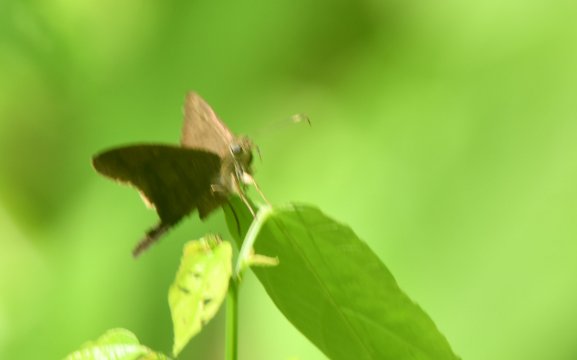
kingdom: Animalia
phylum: Arthropoda
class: Insecta
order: Lepidoptera
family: Hesperiidae
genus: Urbanus
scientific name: Urbanus procne
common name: Brown Longtail
